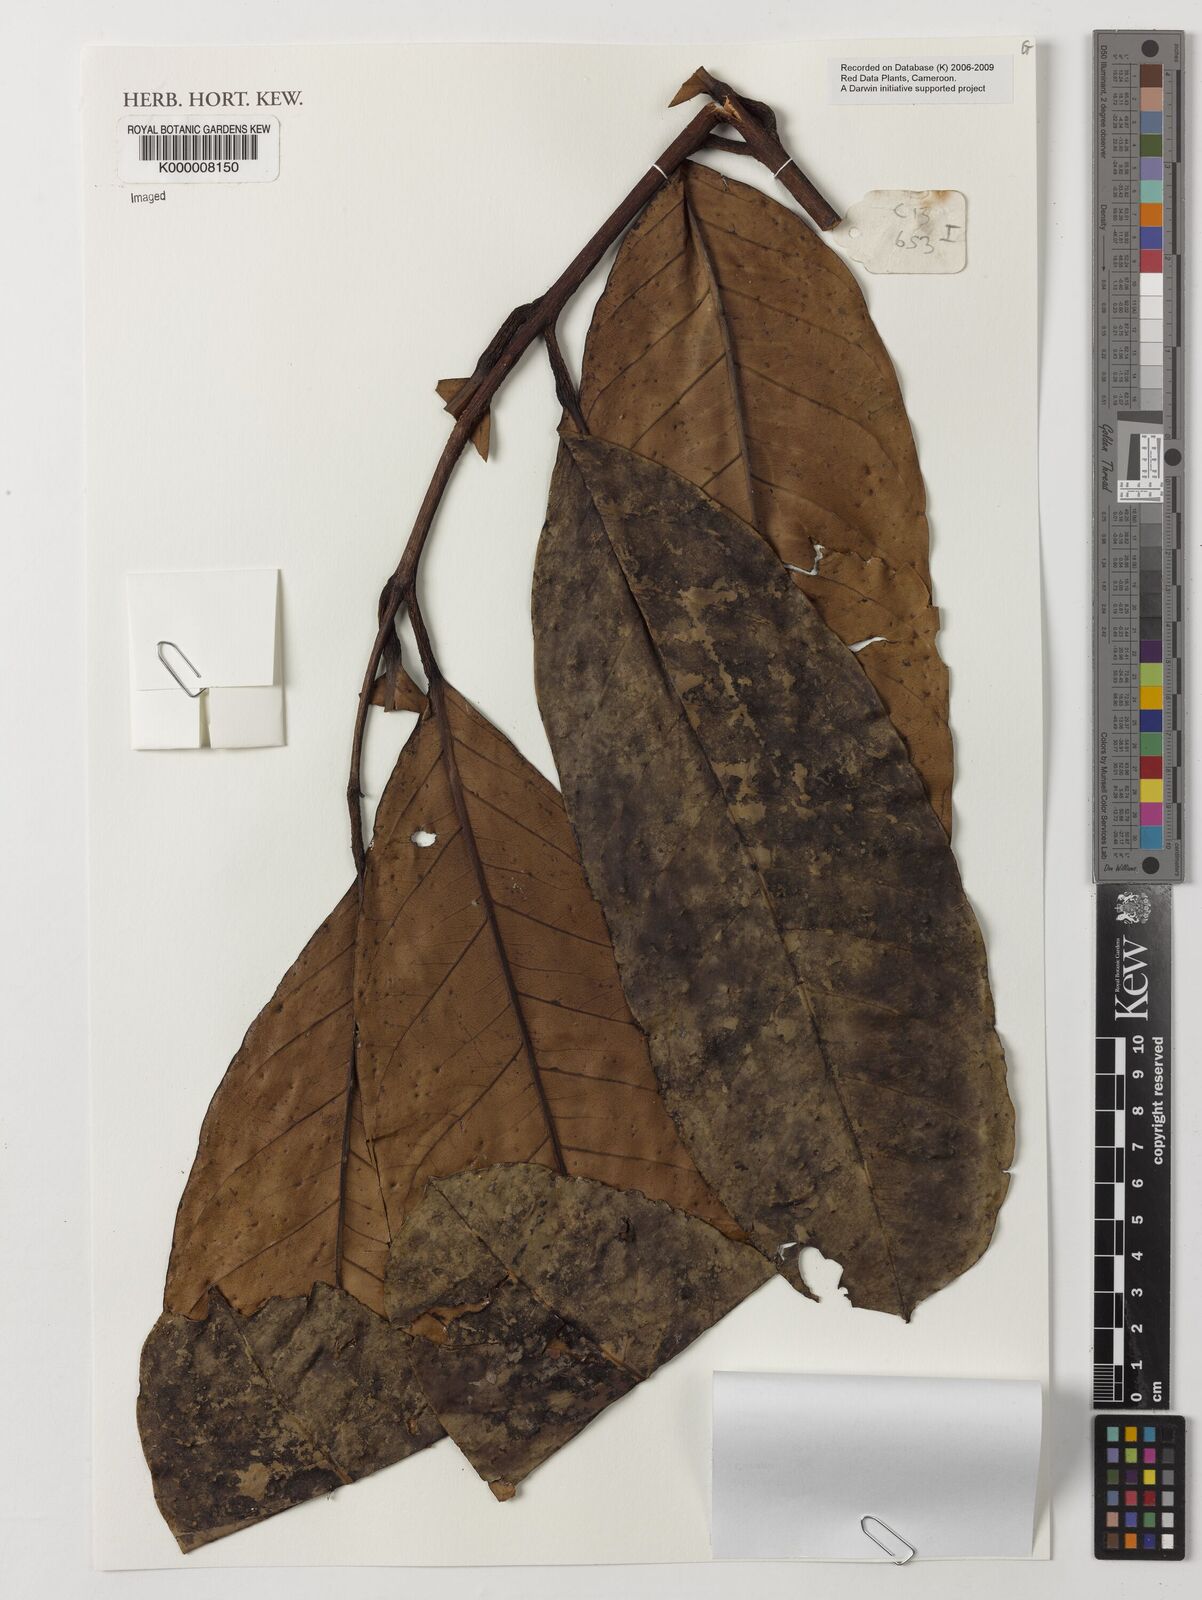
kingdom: Plantae
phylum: Tracheophyta
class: Magnoliopsida
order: Sapindales
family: Meliaceae
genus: Carapa
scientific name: Carapa procera
